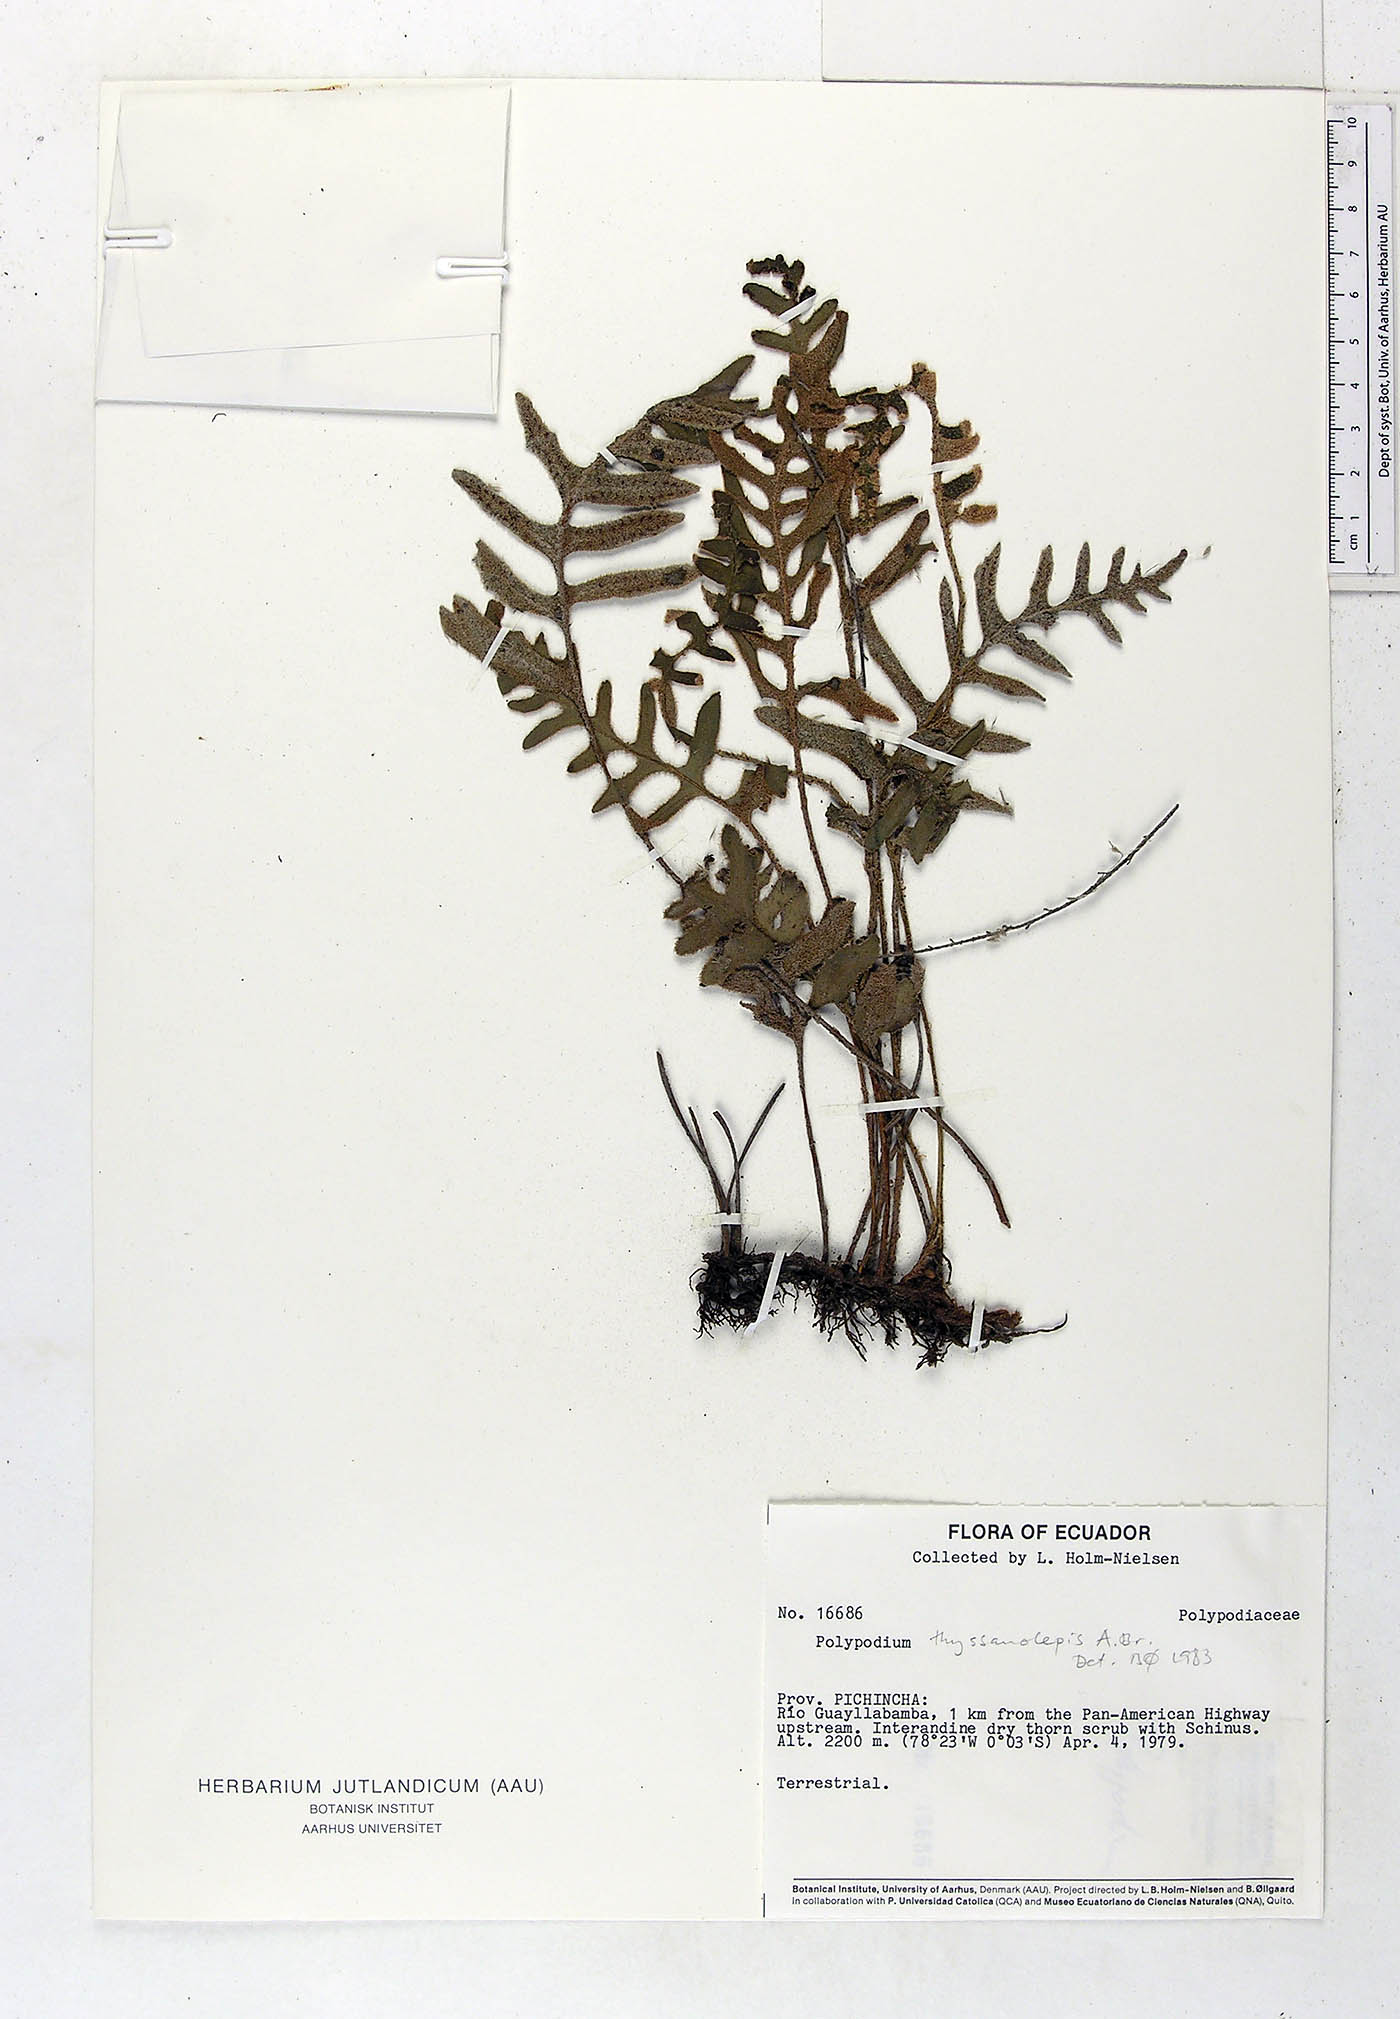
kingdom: Plantae
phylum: Tracheophyta
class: Polypodiopsida
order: Polypodiales
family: Polypodiaceae
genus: Pleopeltis
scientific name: Pleopeltis thyssanolepis
